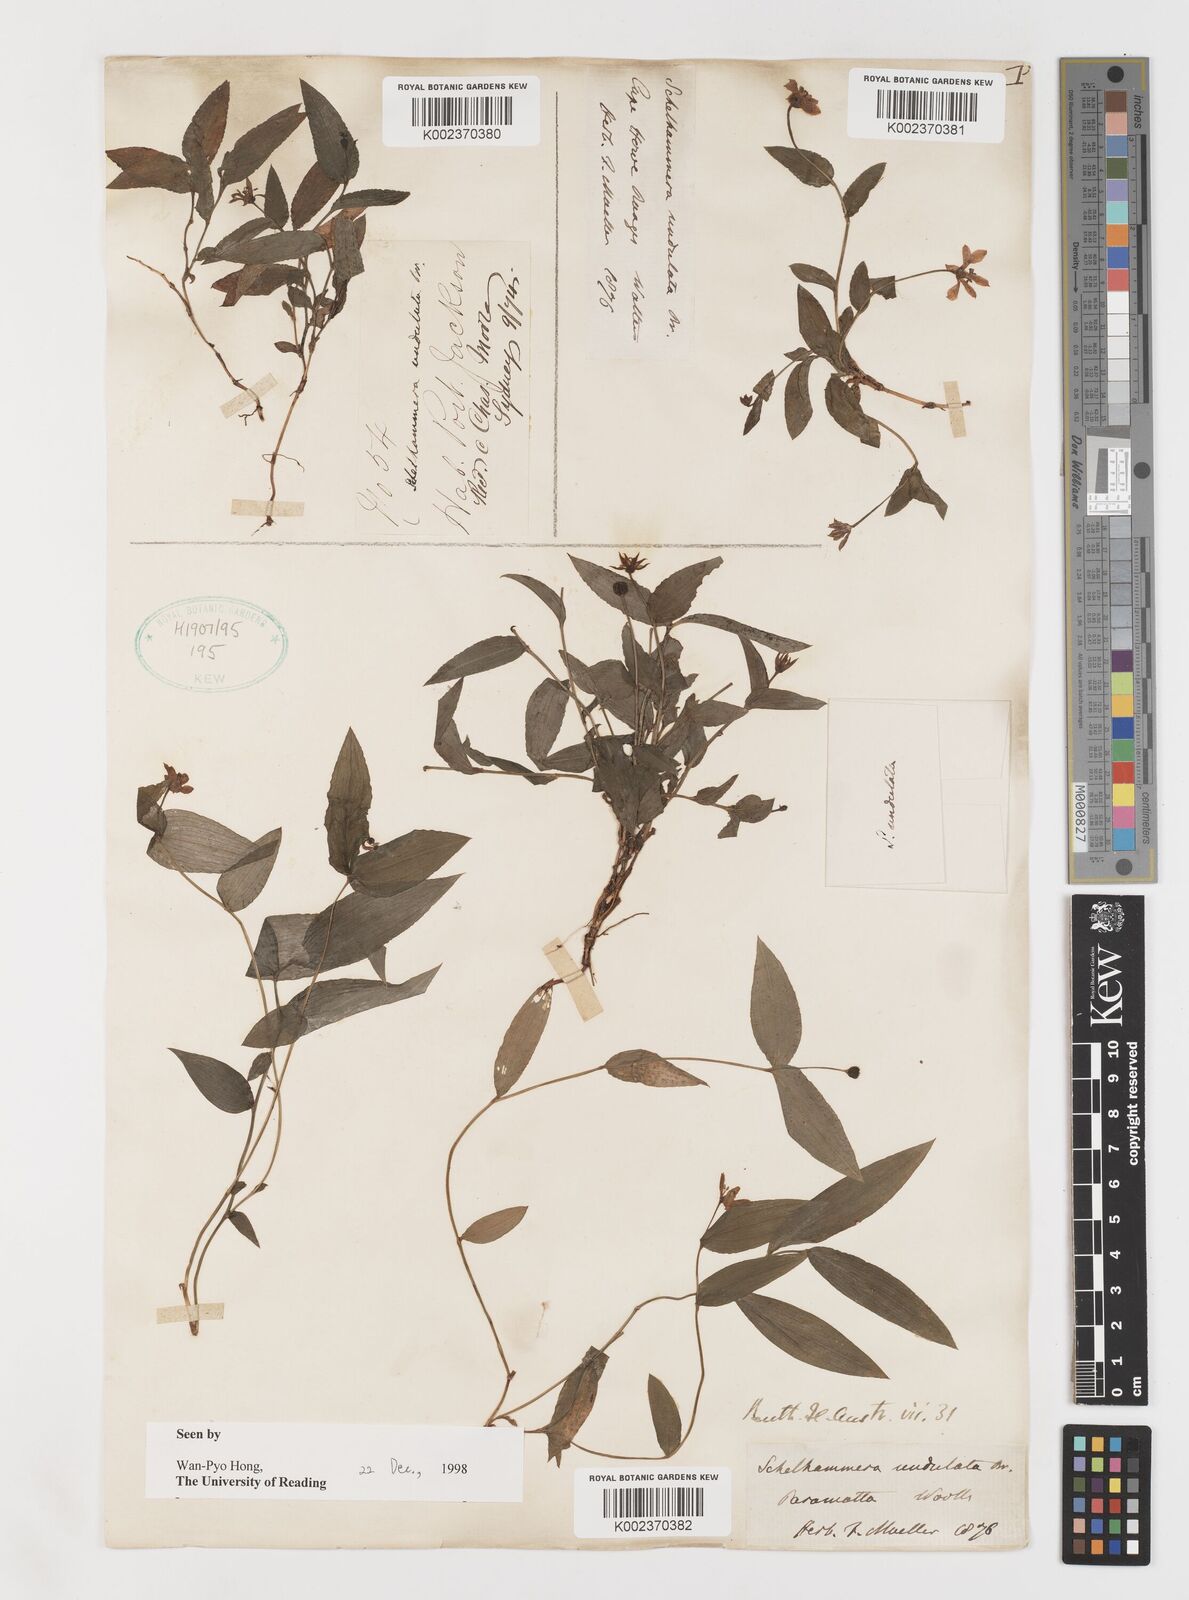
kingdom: Plantae
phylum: Tracheophyta
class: Liliopsida
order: Liliales
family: Colchicaceae
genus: Schelhammera
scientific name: Schelhammera undulata
